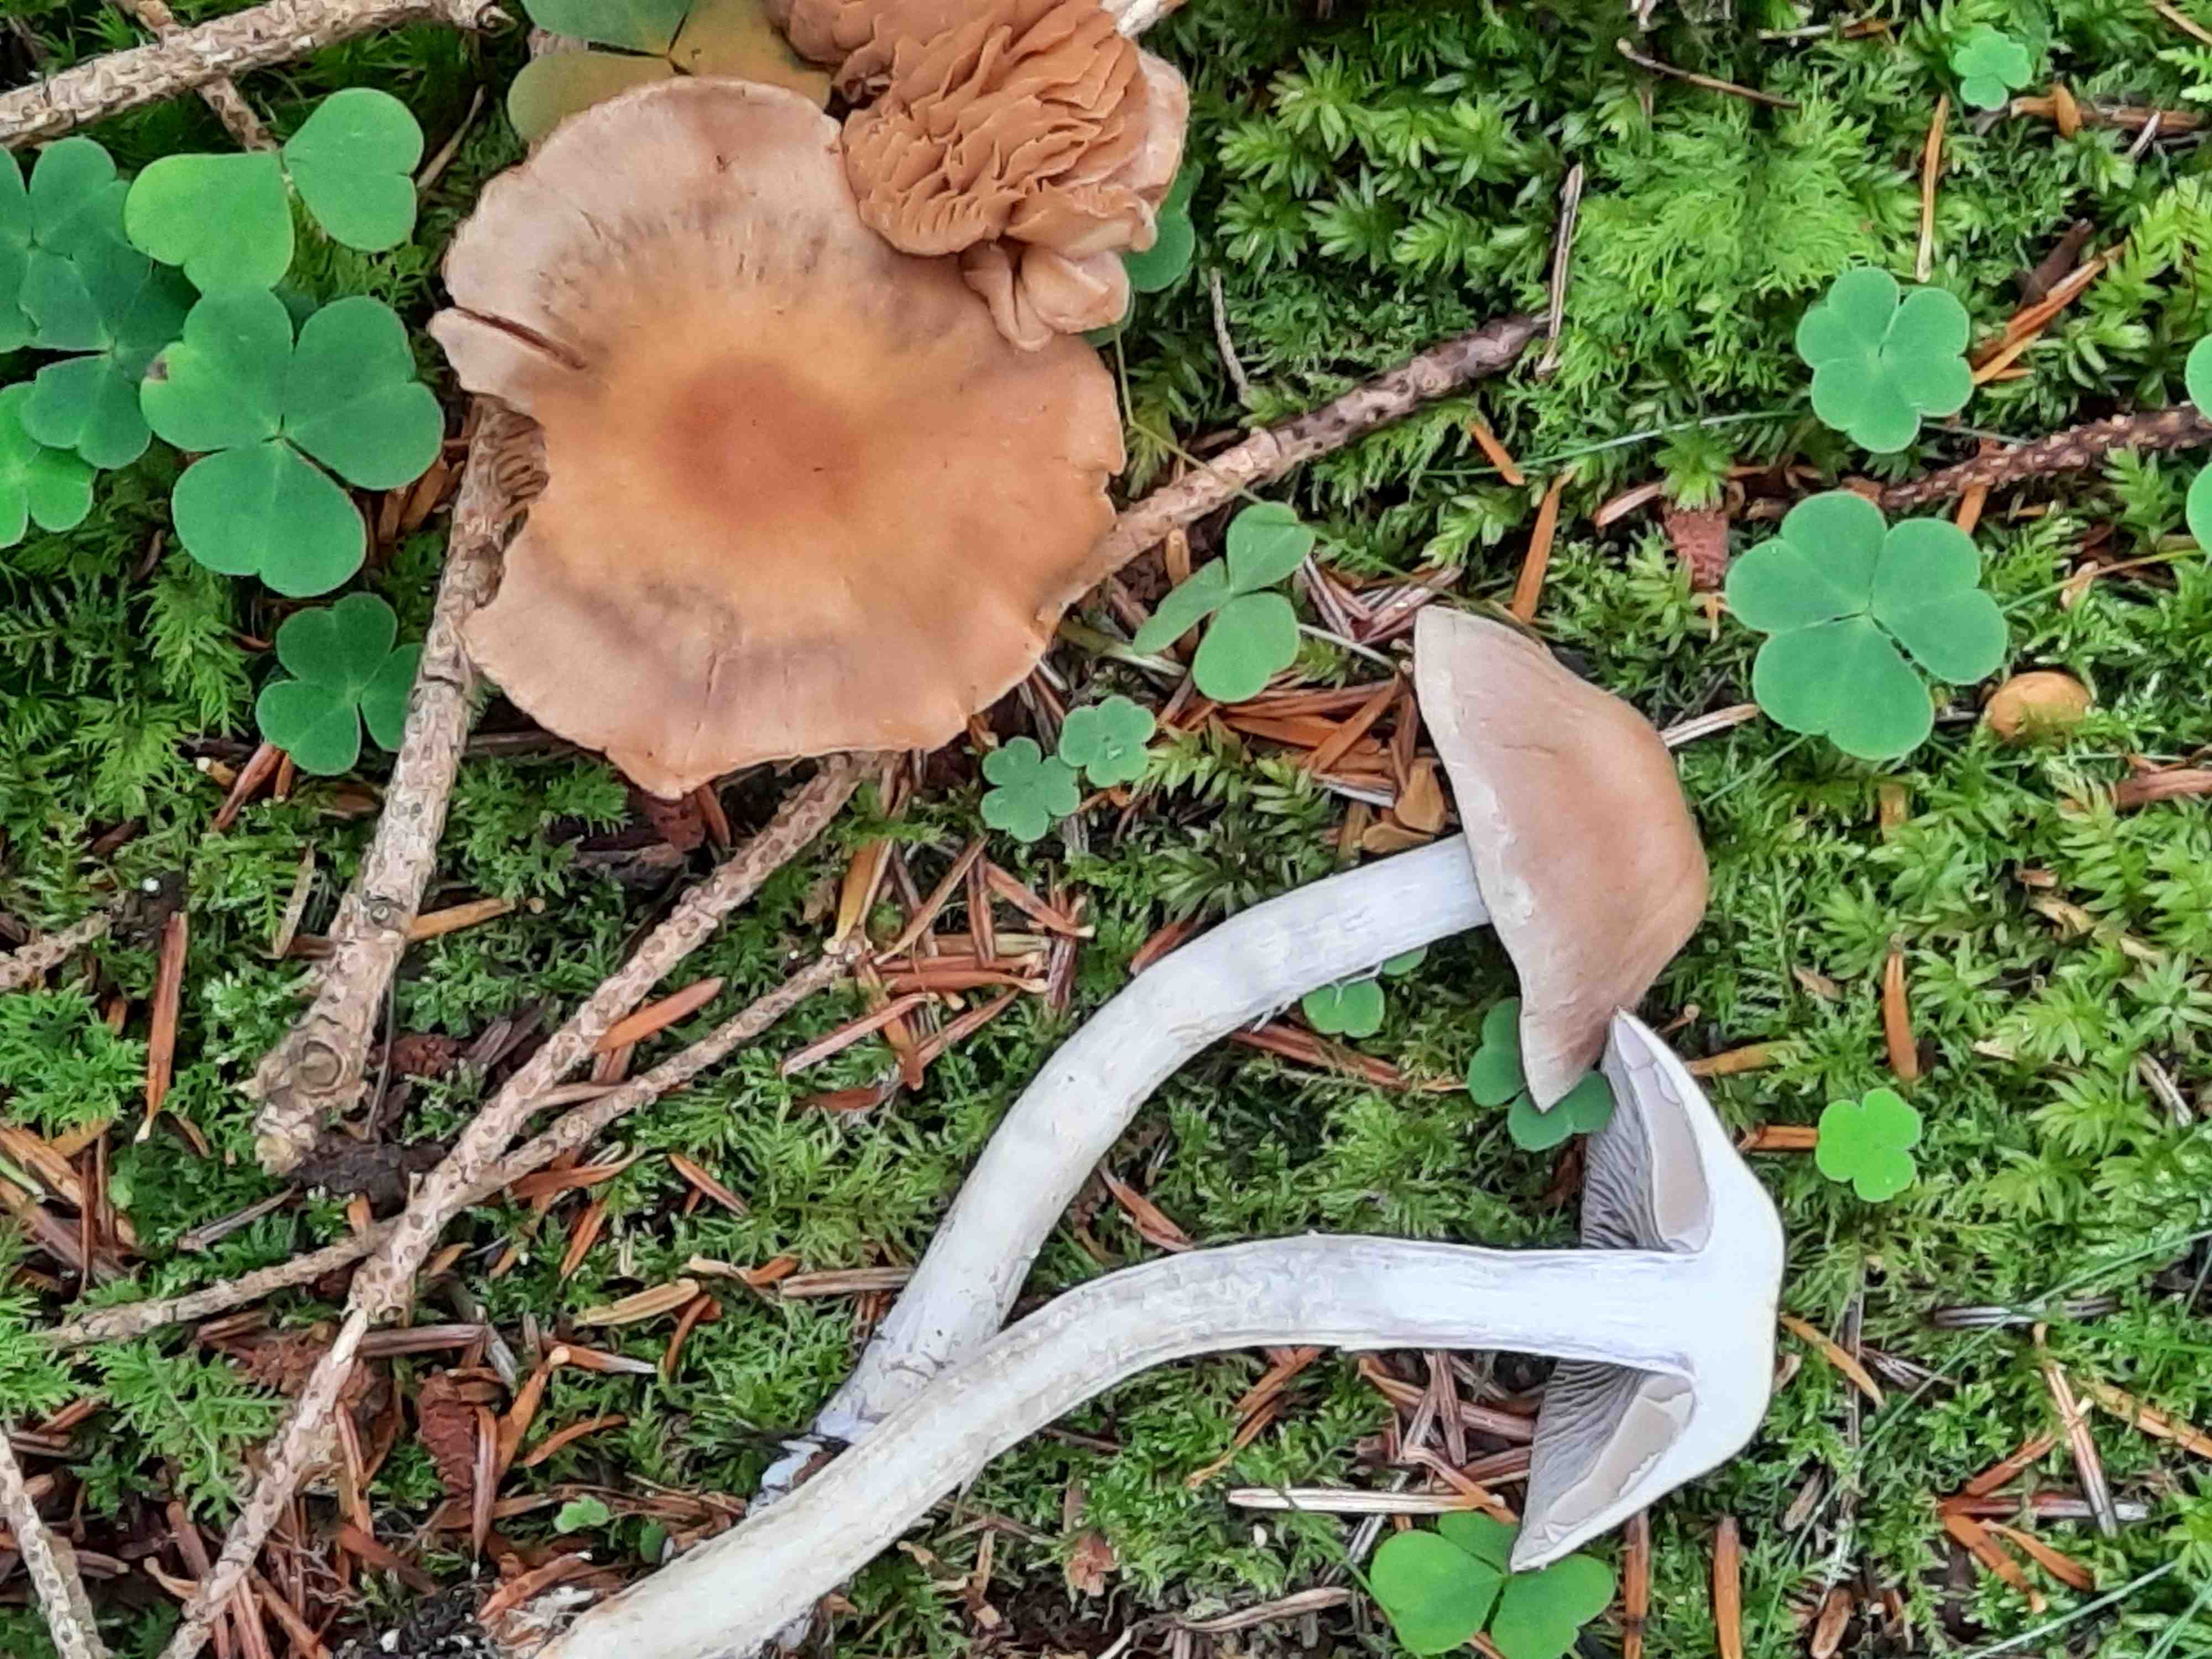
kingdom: Fungi
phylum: Basidiomycota
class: Agaricomycetes
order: Agaricales
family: Cortinariaceae
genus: Cortinarius
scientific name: Cortinarius
